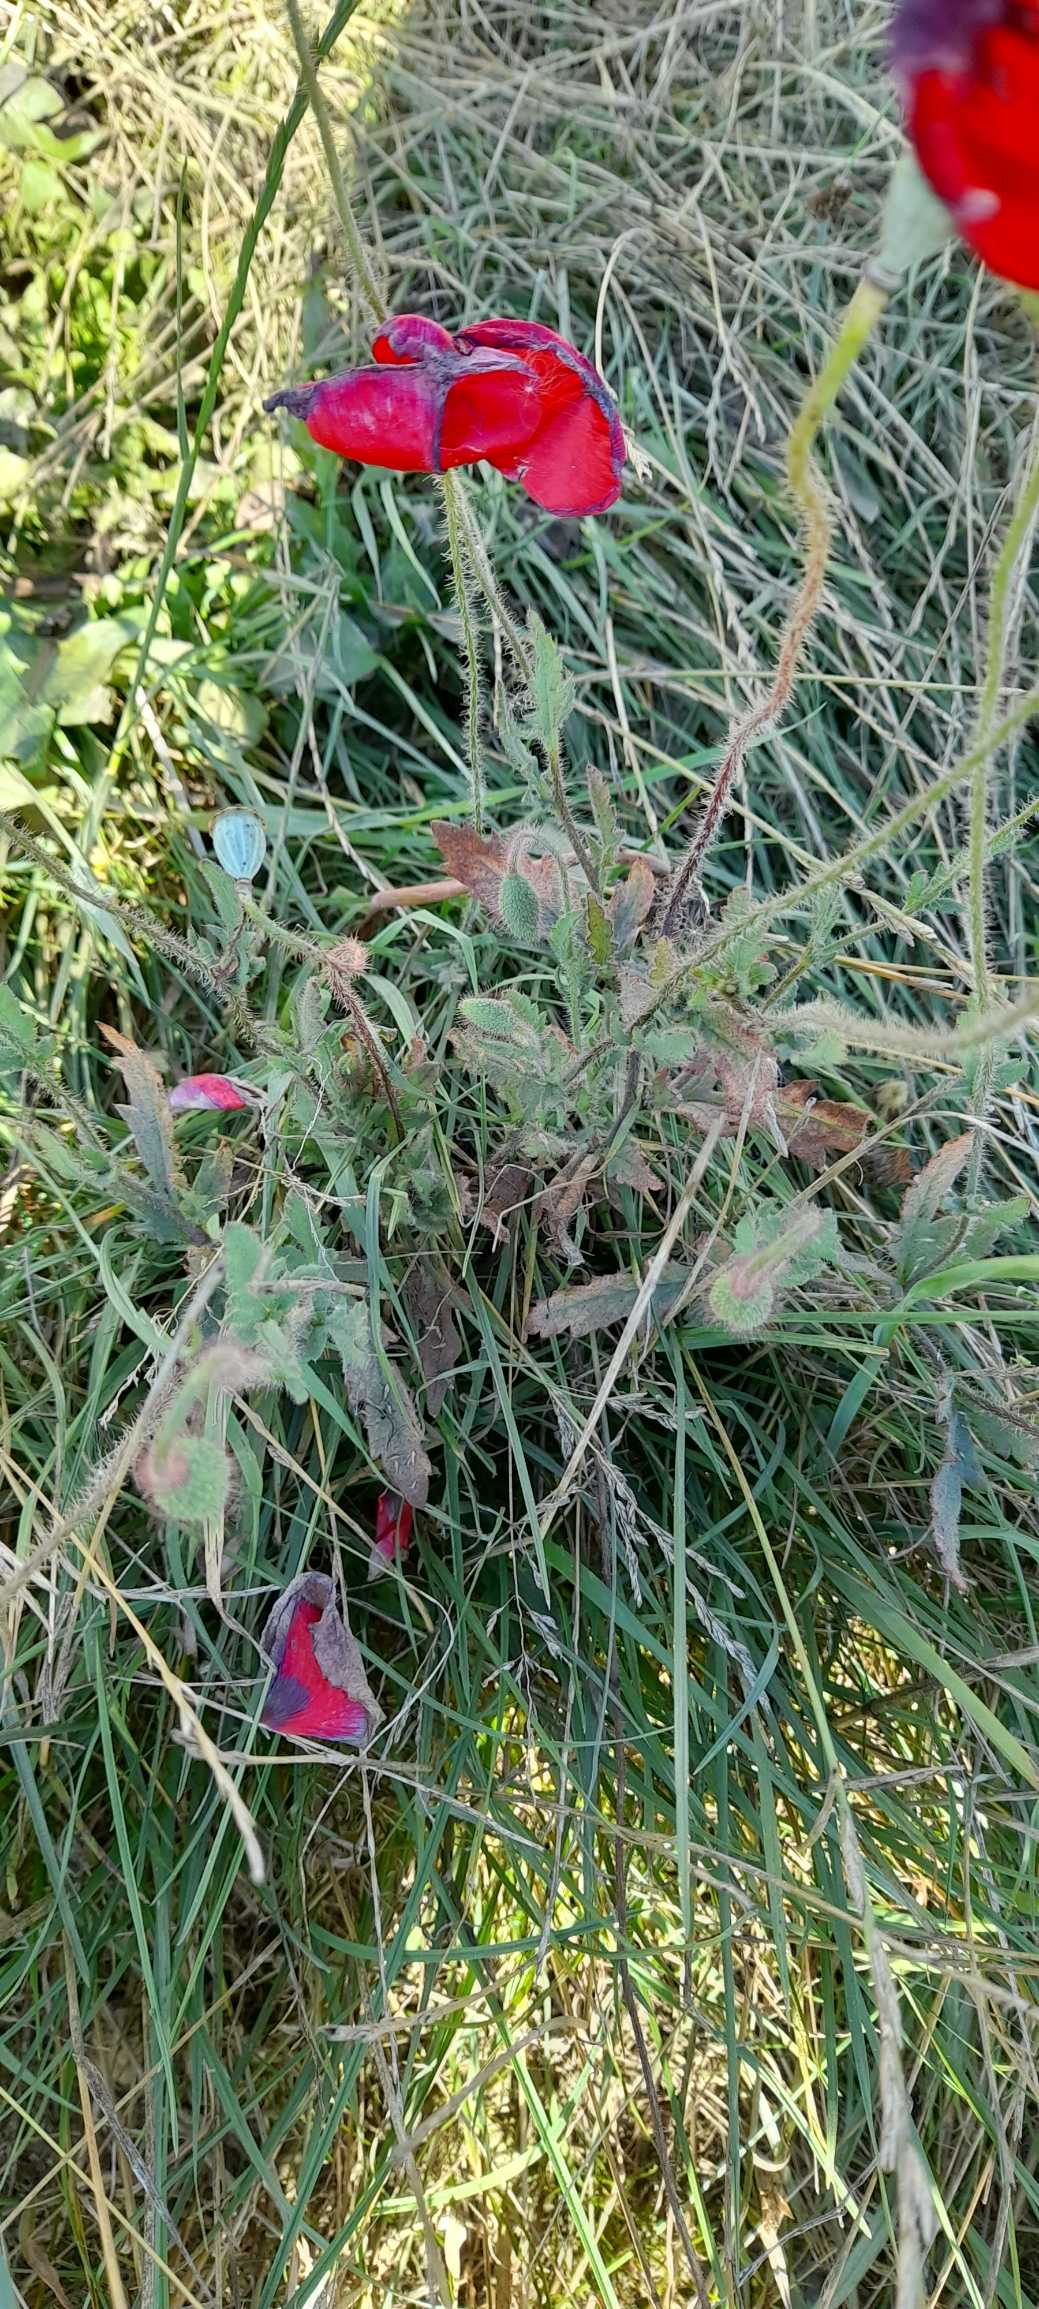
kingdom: Plantae
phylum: Tracheophyta
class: Magnoliopsida
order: Ranunculales
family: Papaveraceae
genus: Papaver
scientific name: Papaver rhoeas
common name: Korn-valmue
